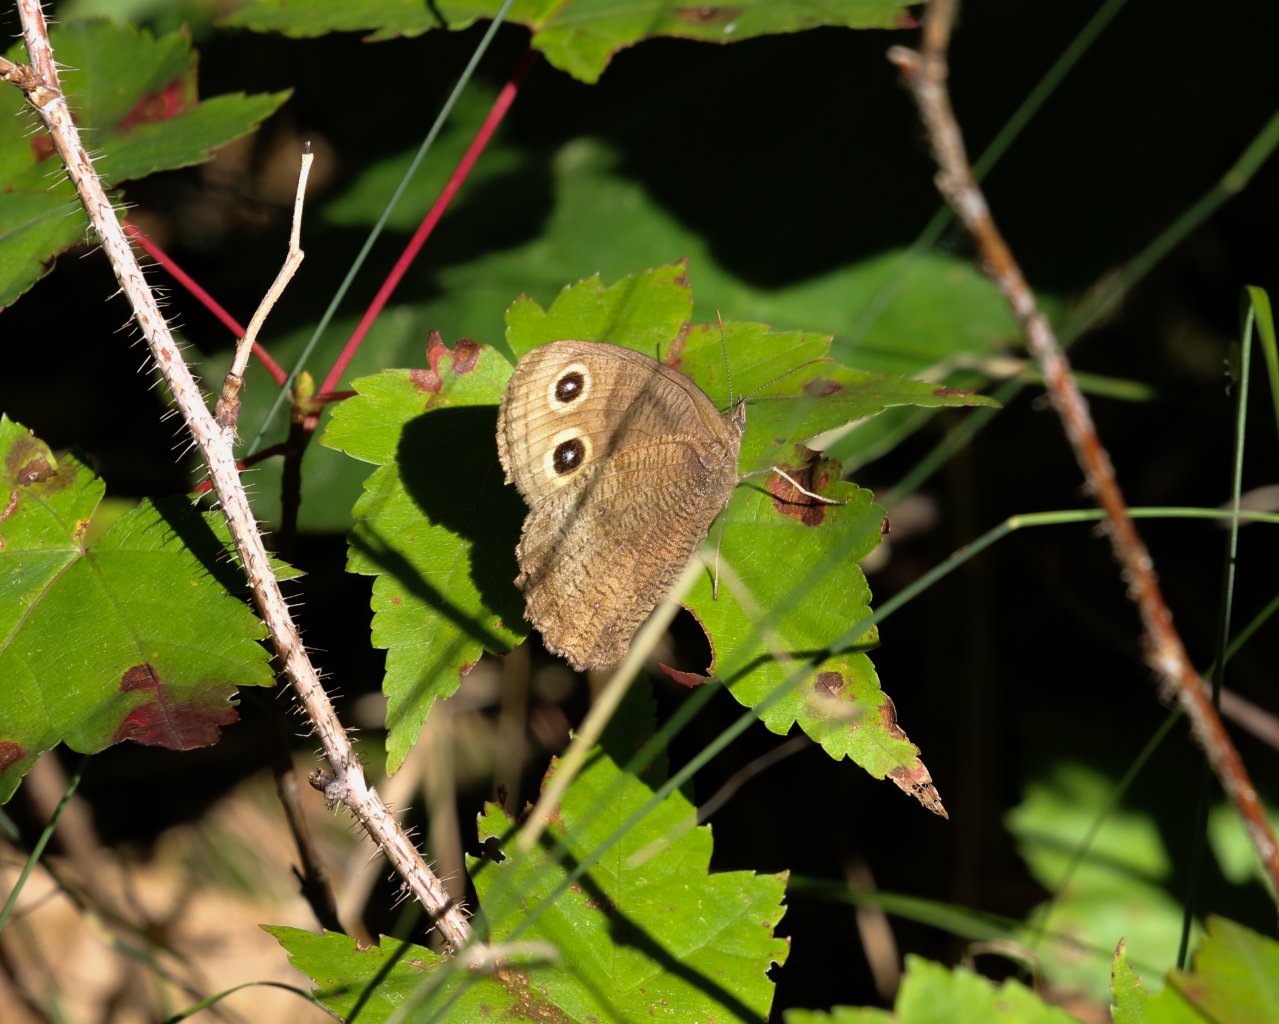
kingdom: Animalia
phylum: Arthropoda
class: Insecta
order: Lepidoptera
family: Nymphalidae
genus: Cercyonis
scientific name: Cercyonis pegala
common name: Common Wood-Nymph
